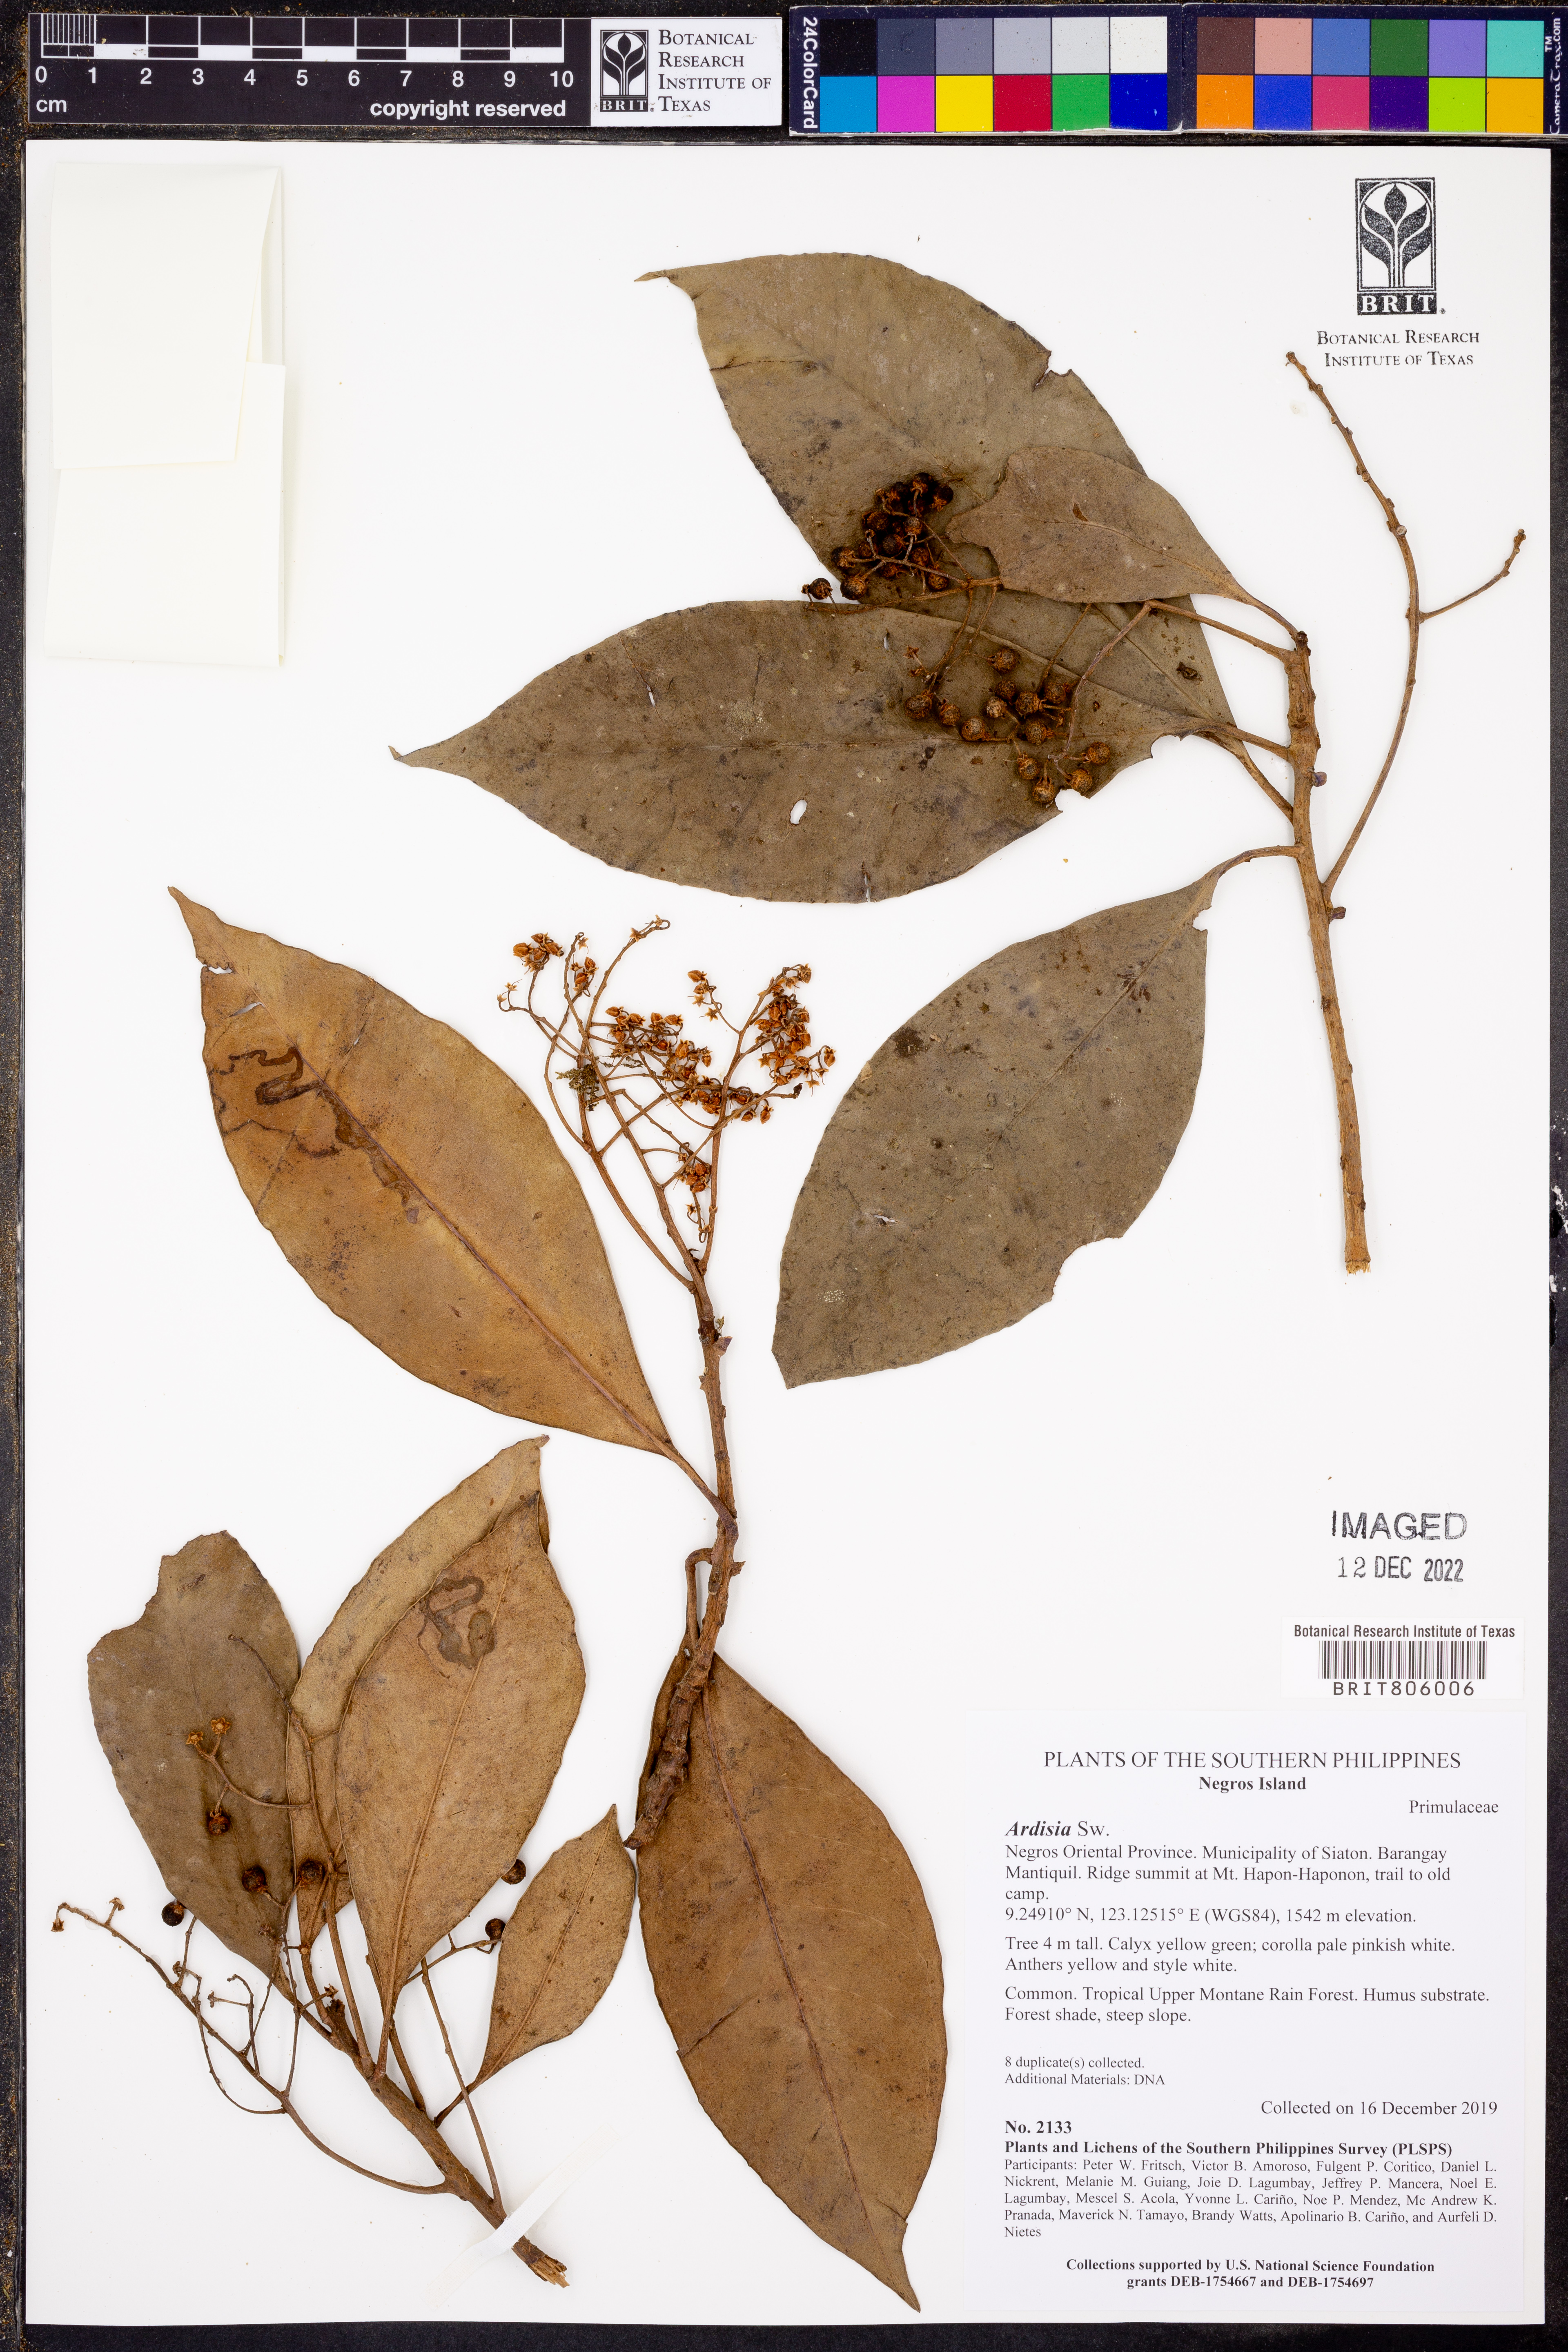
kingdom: Plantae
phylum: Tracheophyta
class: Magnoliopsida
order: Ericales
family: Primulaceae
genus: Ardisia
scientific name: Ardisia
